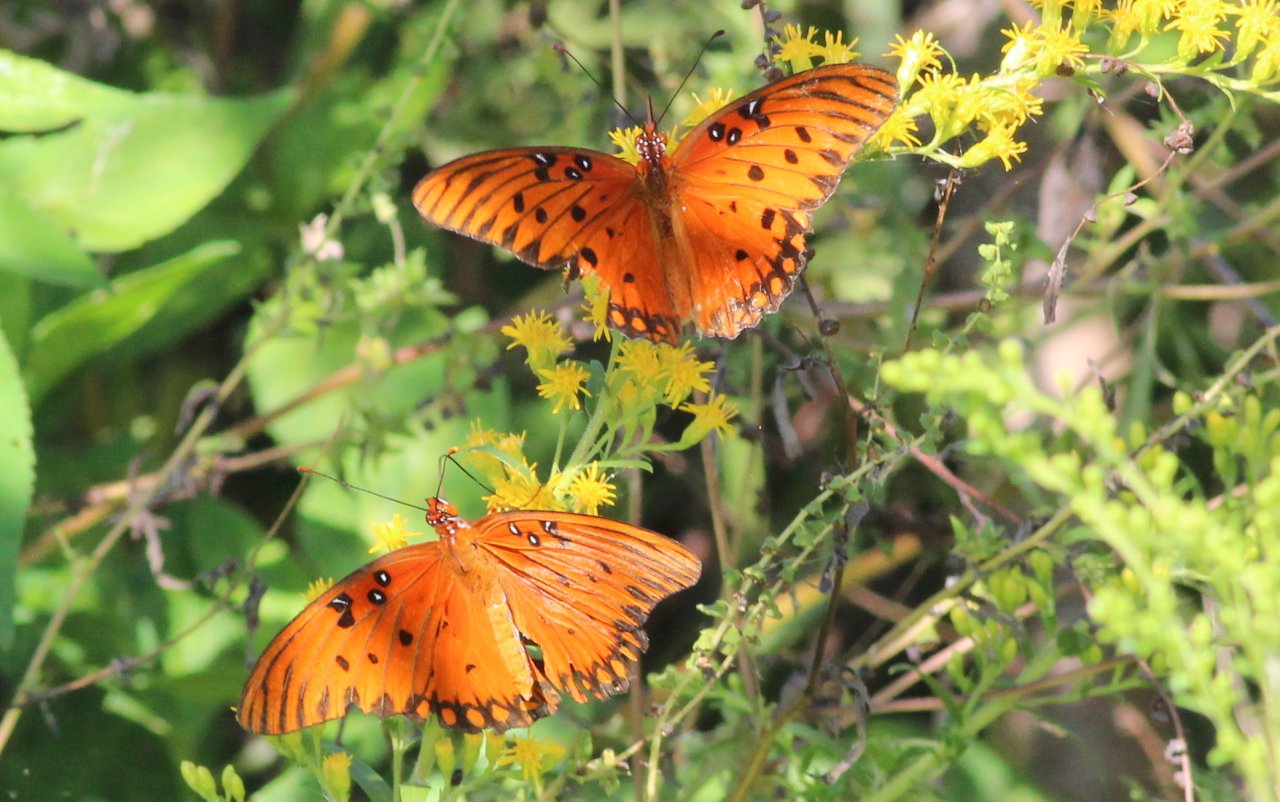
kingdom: Animalia
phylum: Arthropoda
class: Insecta
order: Lepidoptera
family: Nymphalidae
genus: Dione
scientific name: Dione vanillae
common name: Gulf Fritillary
